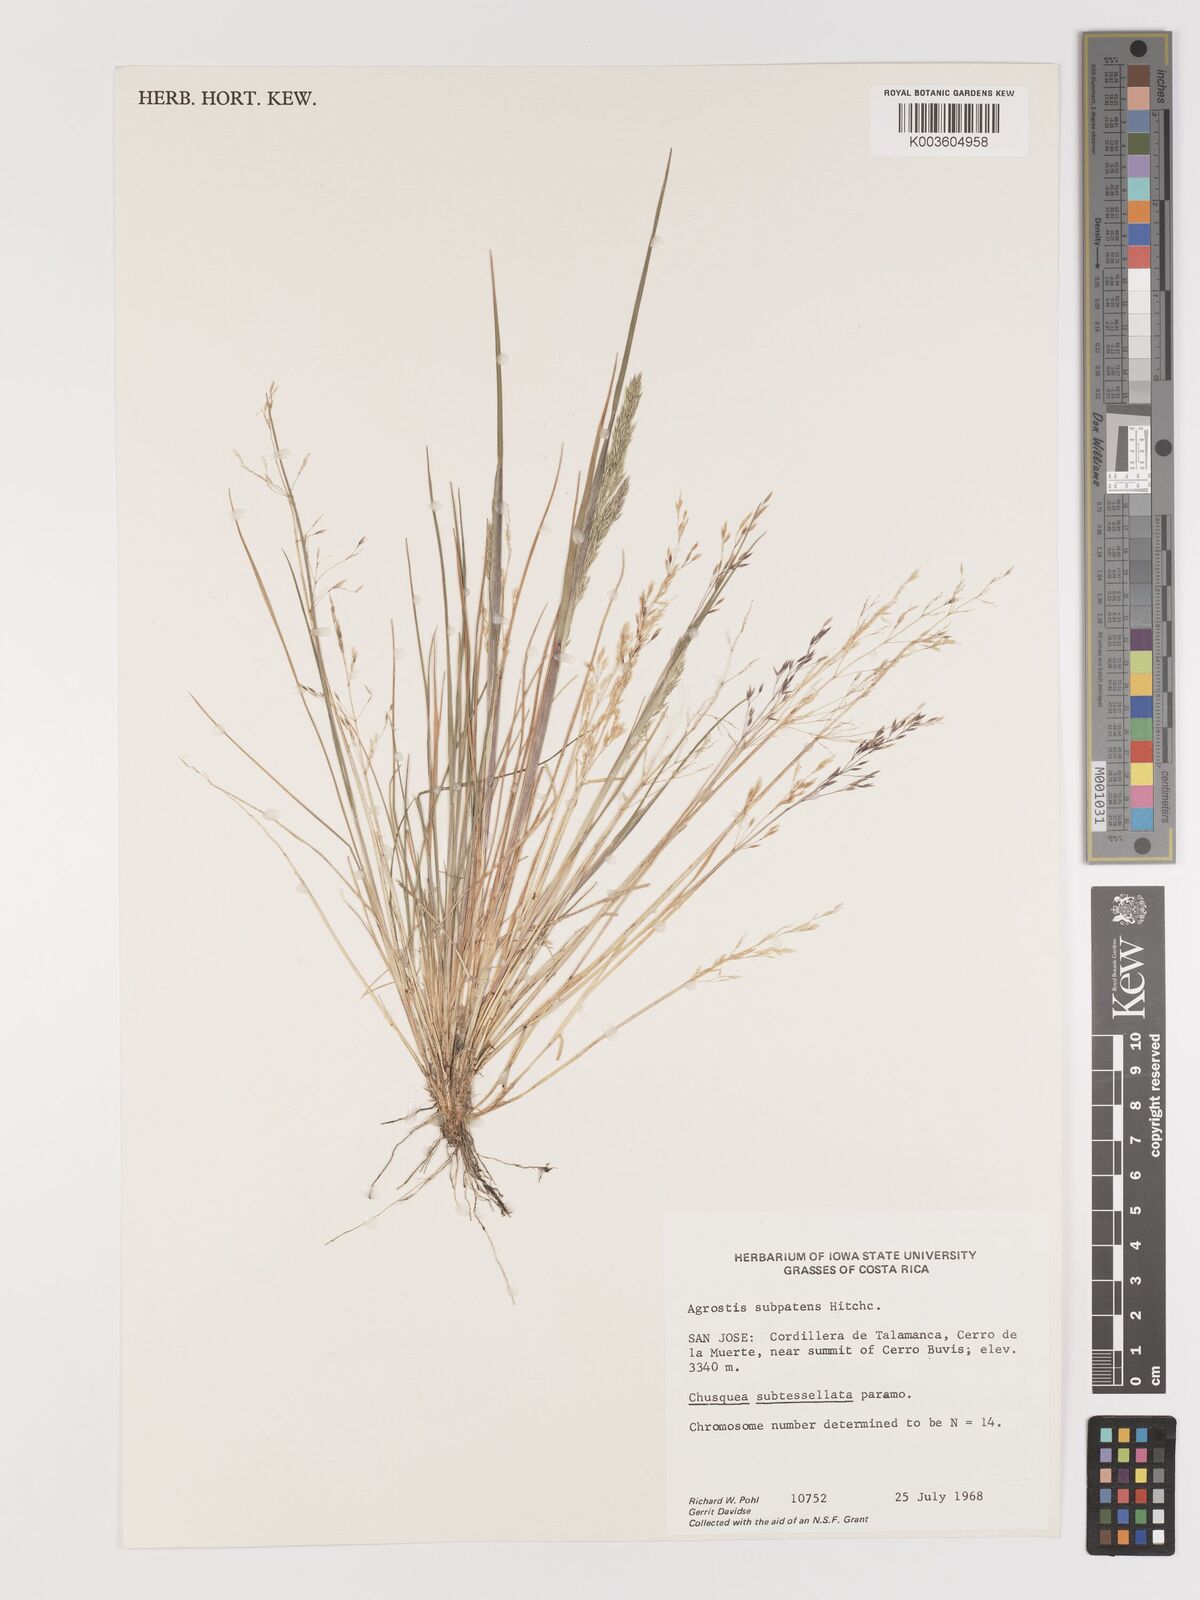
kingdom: Plantae
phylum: Tracheophyta
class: Liliopsida
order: Poales
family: Poaceae
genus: Agrostis
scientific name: Agrostis subpatens
